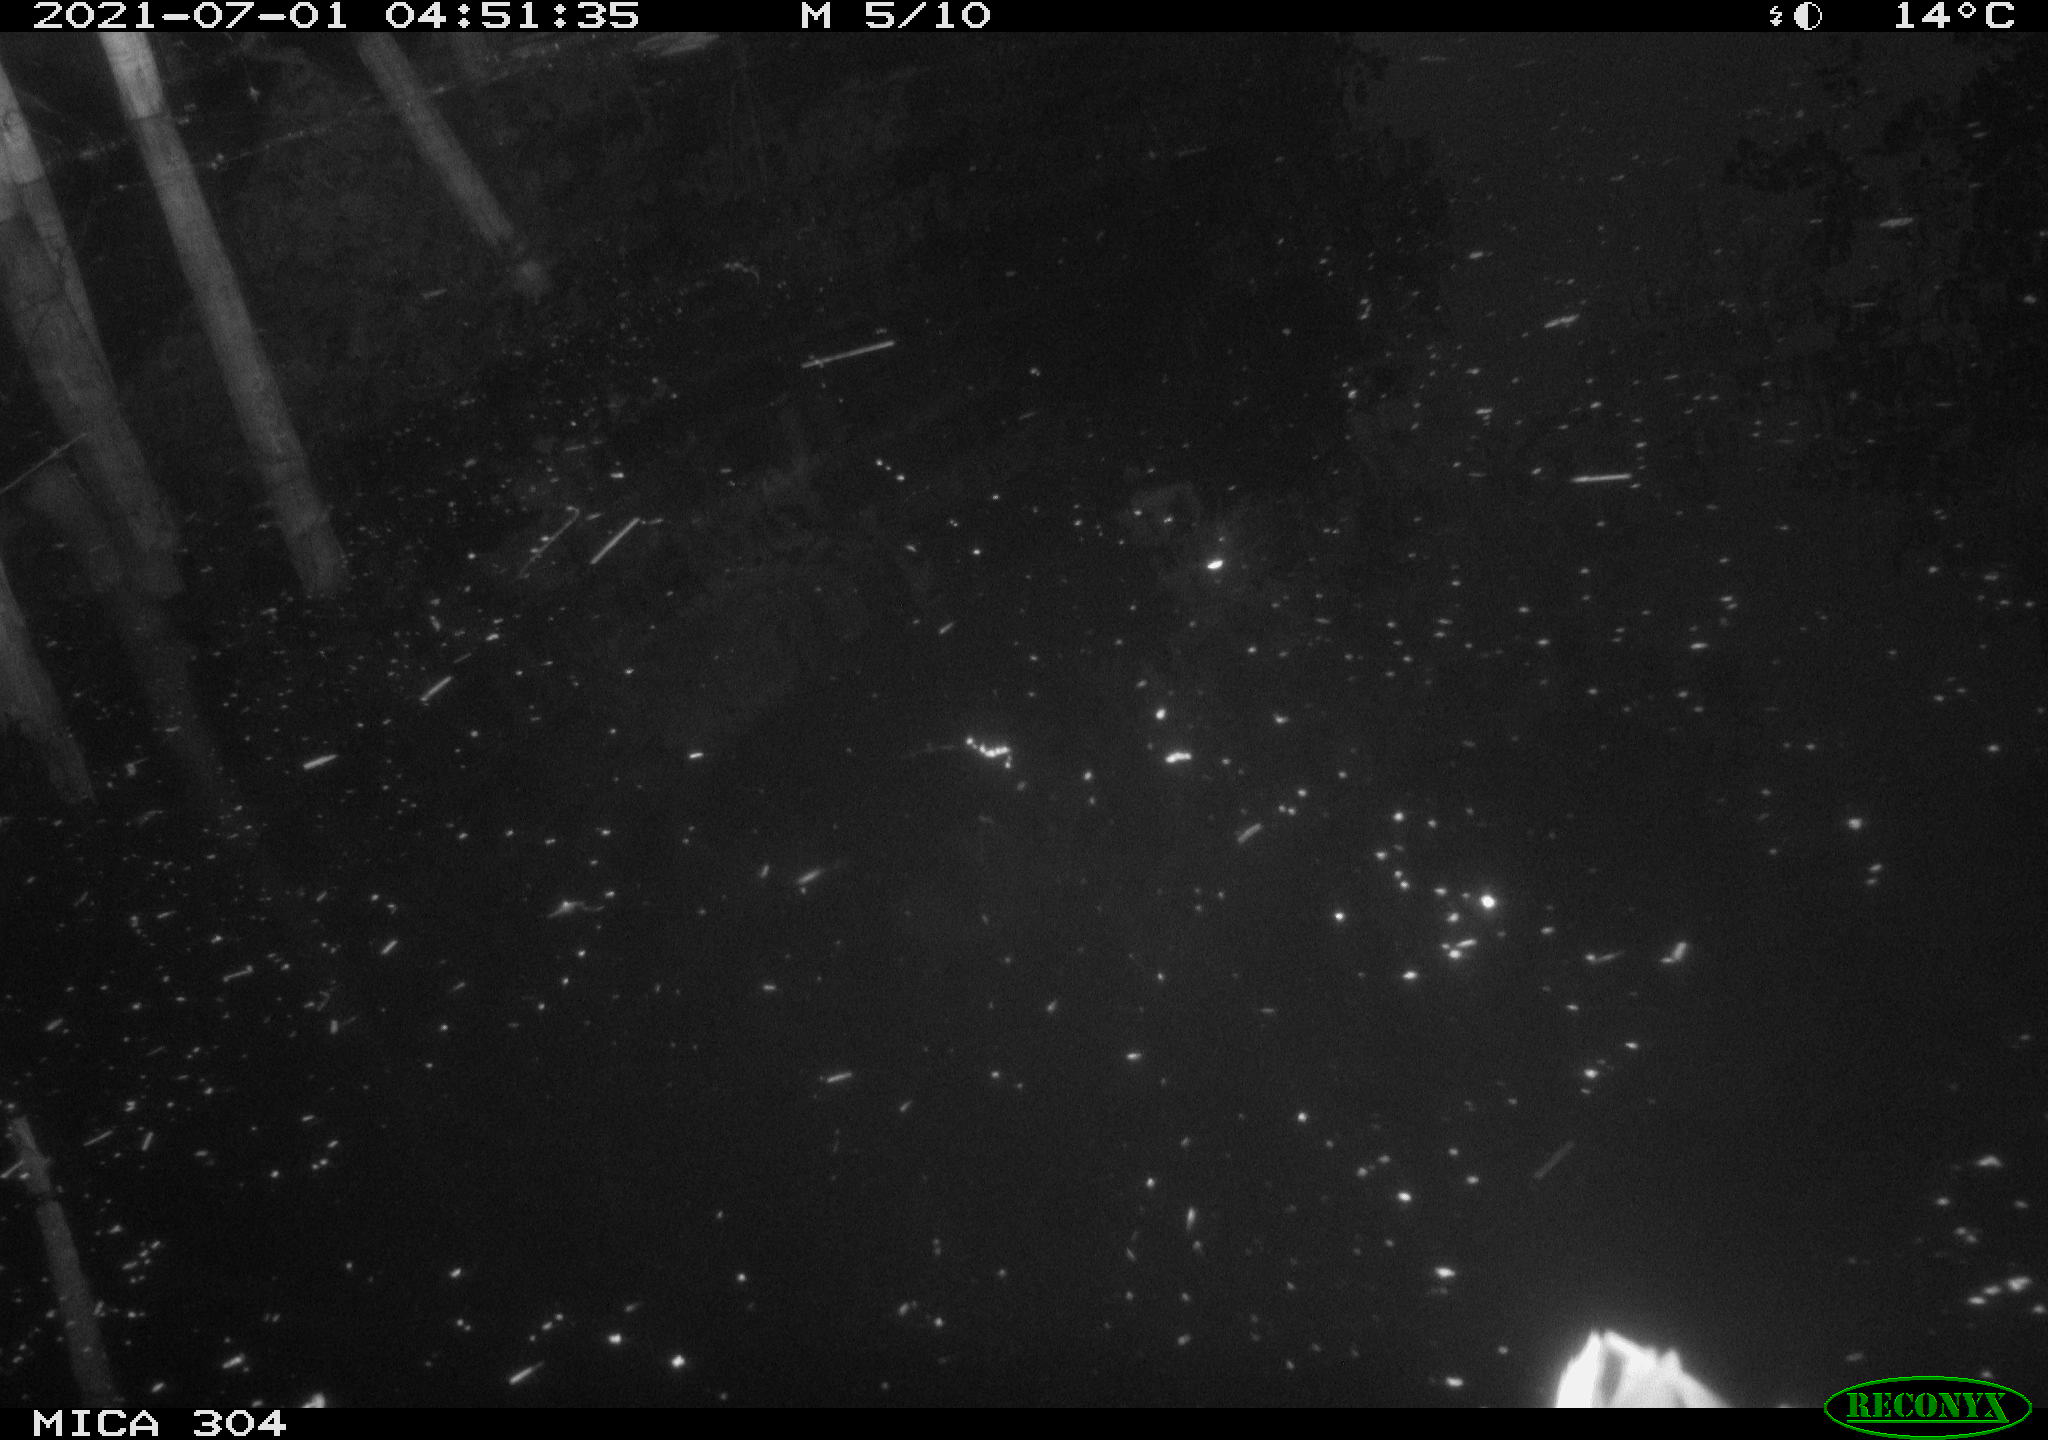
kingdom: Animalia
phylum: Chordata
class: Aves
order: Anseriformes
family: Anatidae
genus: Anas
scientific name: Anas platyrhynchos
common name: Mallard
